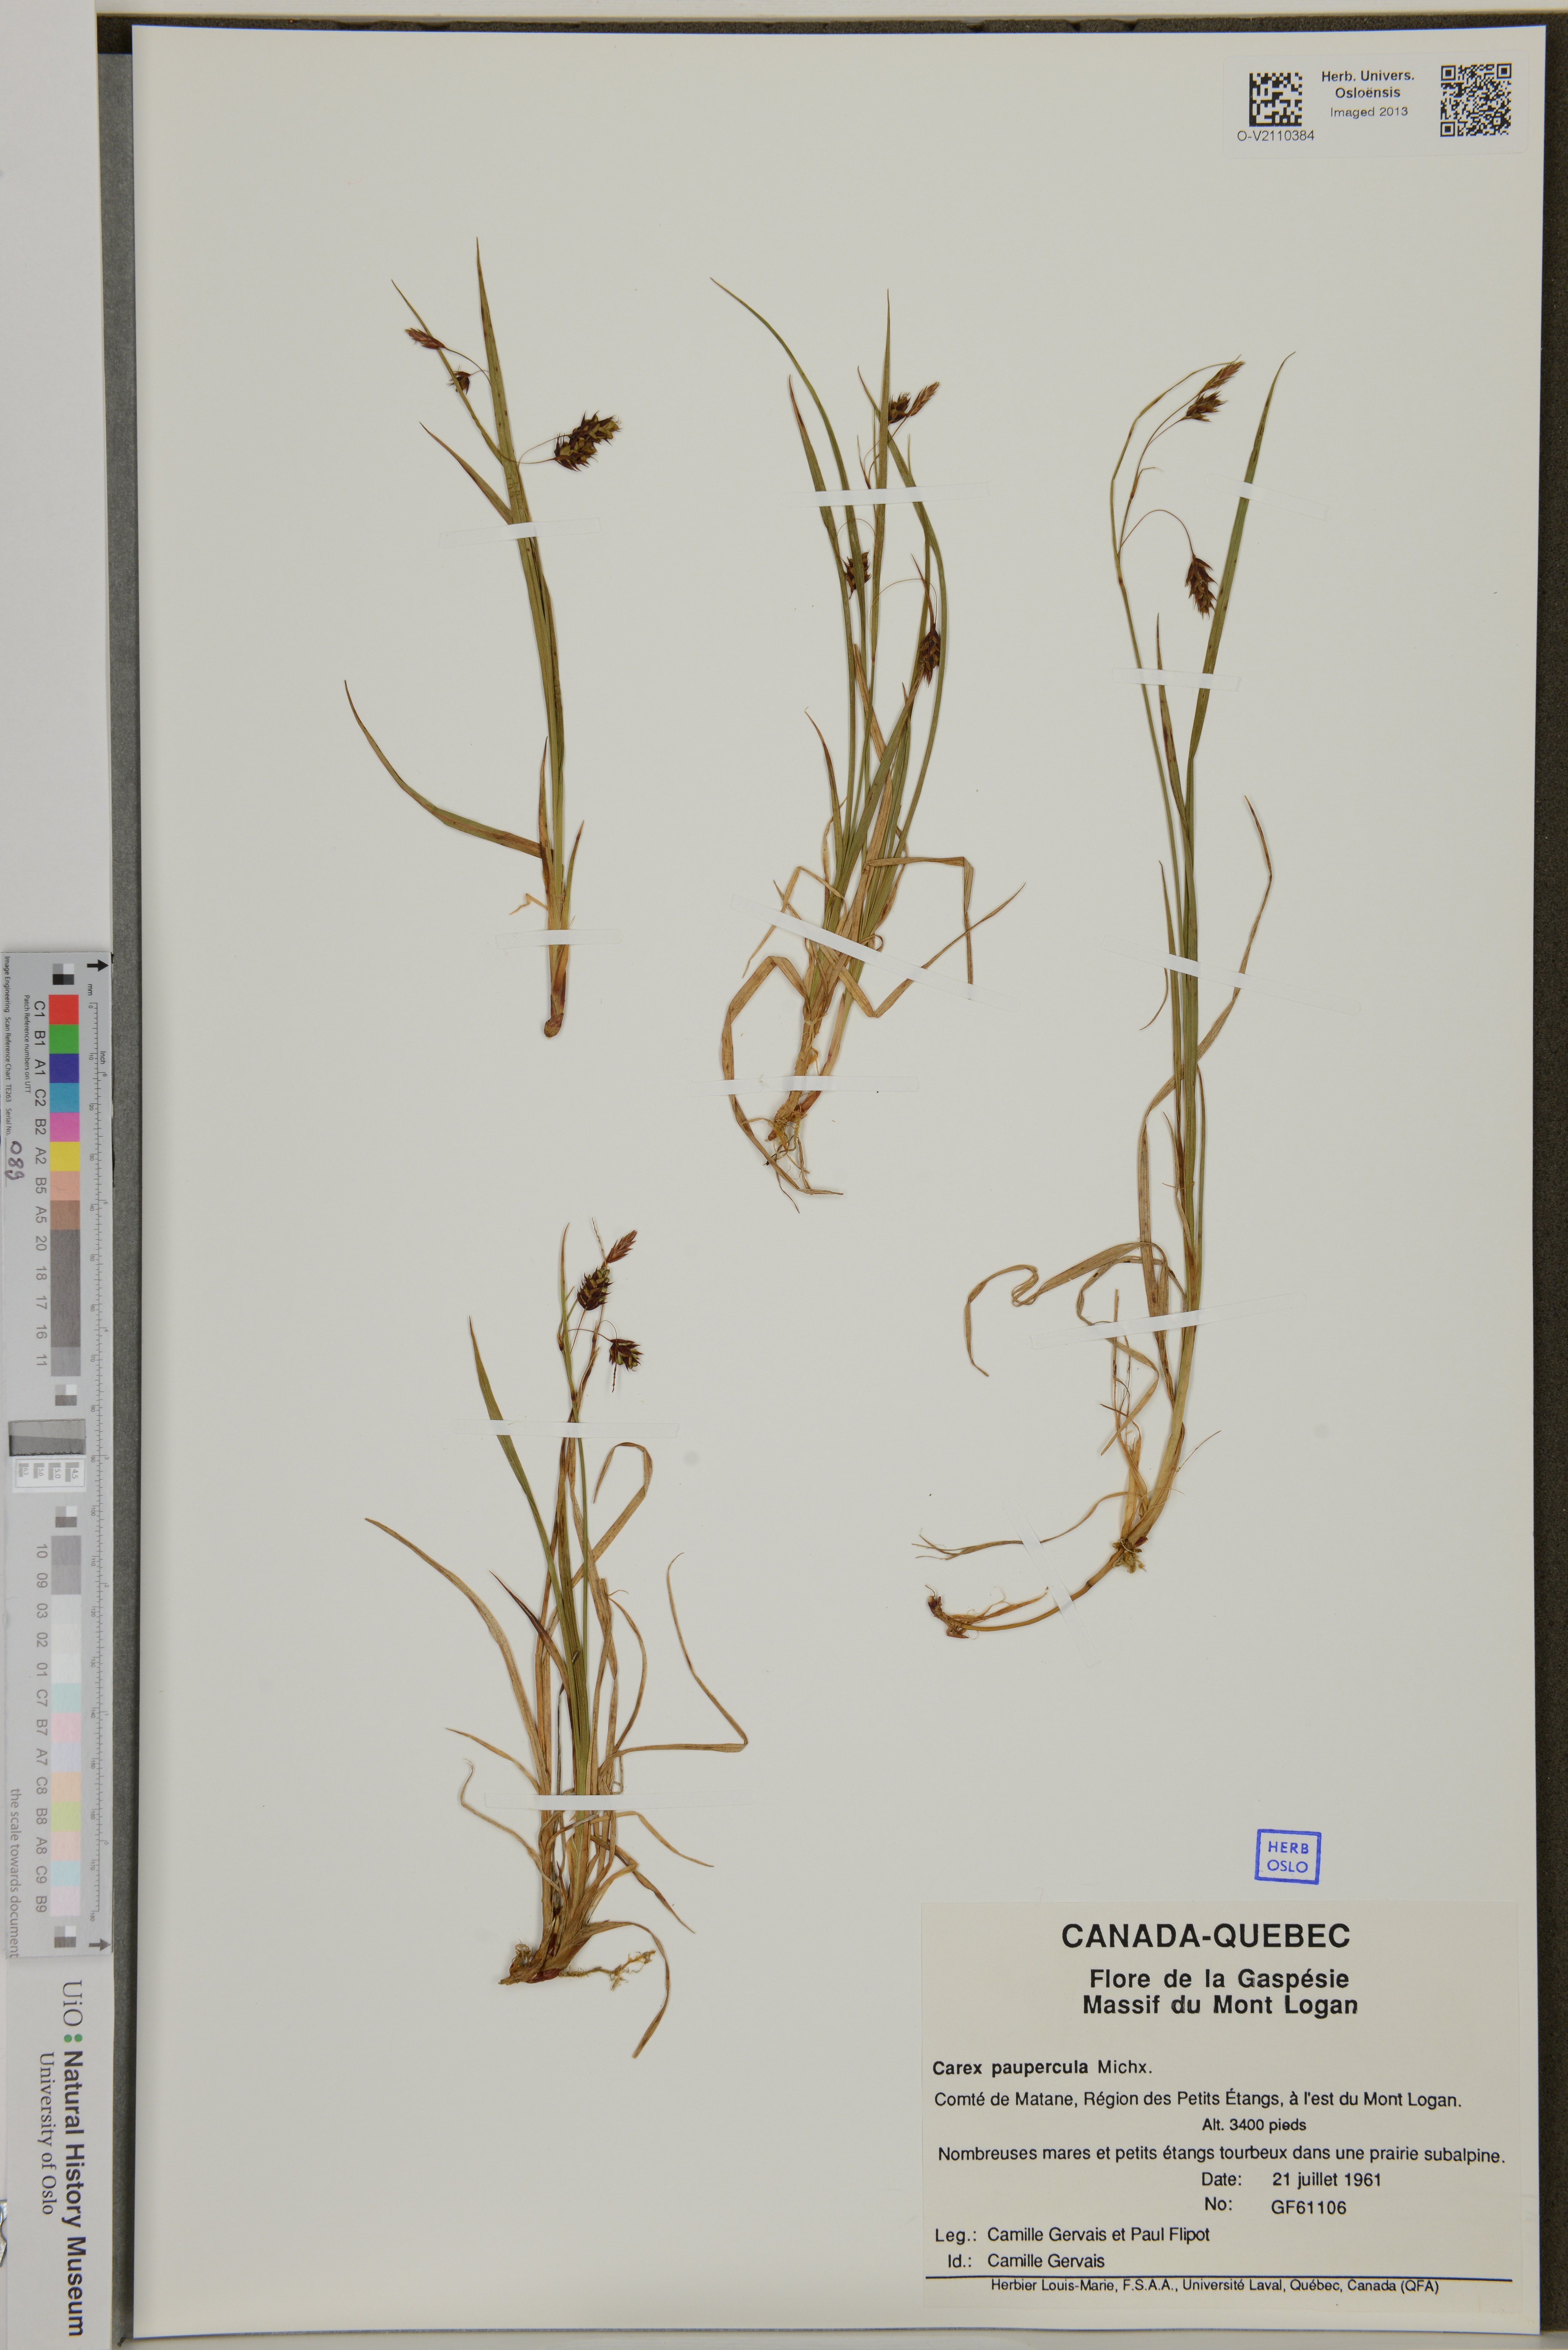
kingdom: Plantae
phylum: Tracheophyta
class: Liliopsida
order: Poales
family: Cyperaceae
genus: Carex
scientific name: Carex magellanica
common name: Bog sedge
